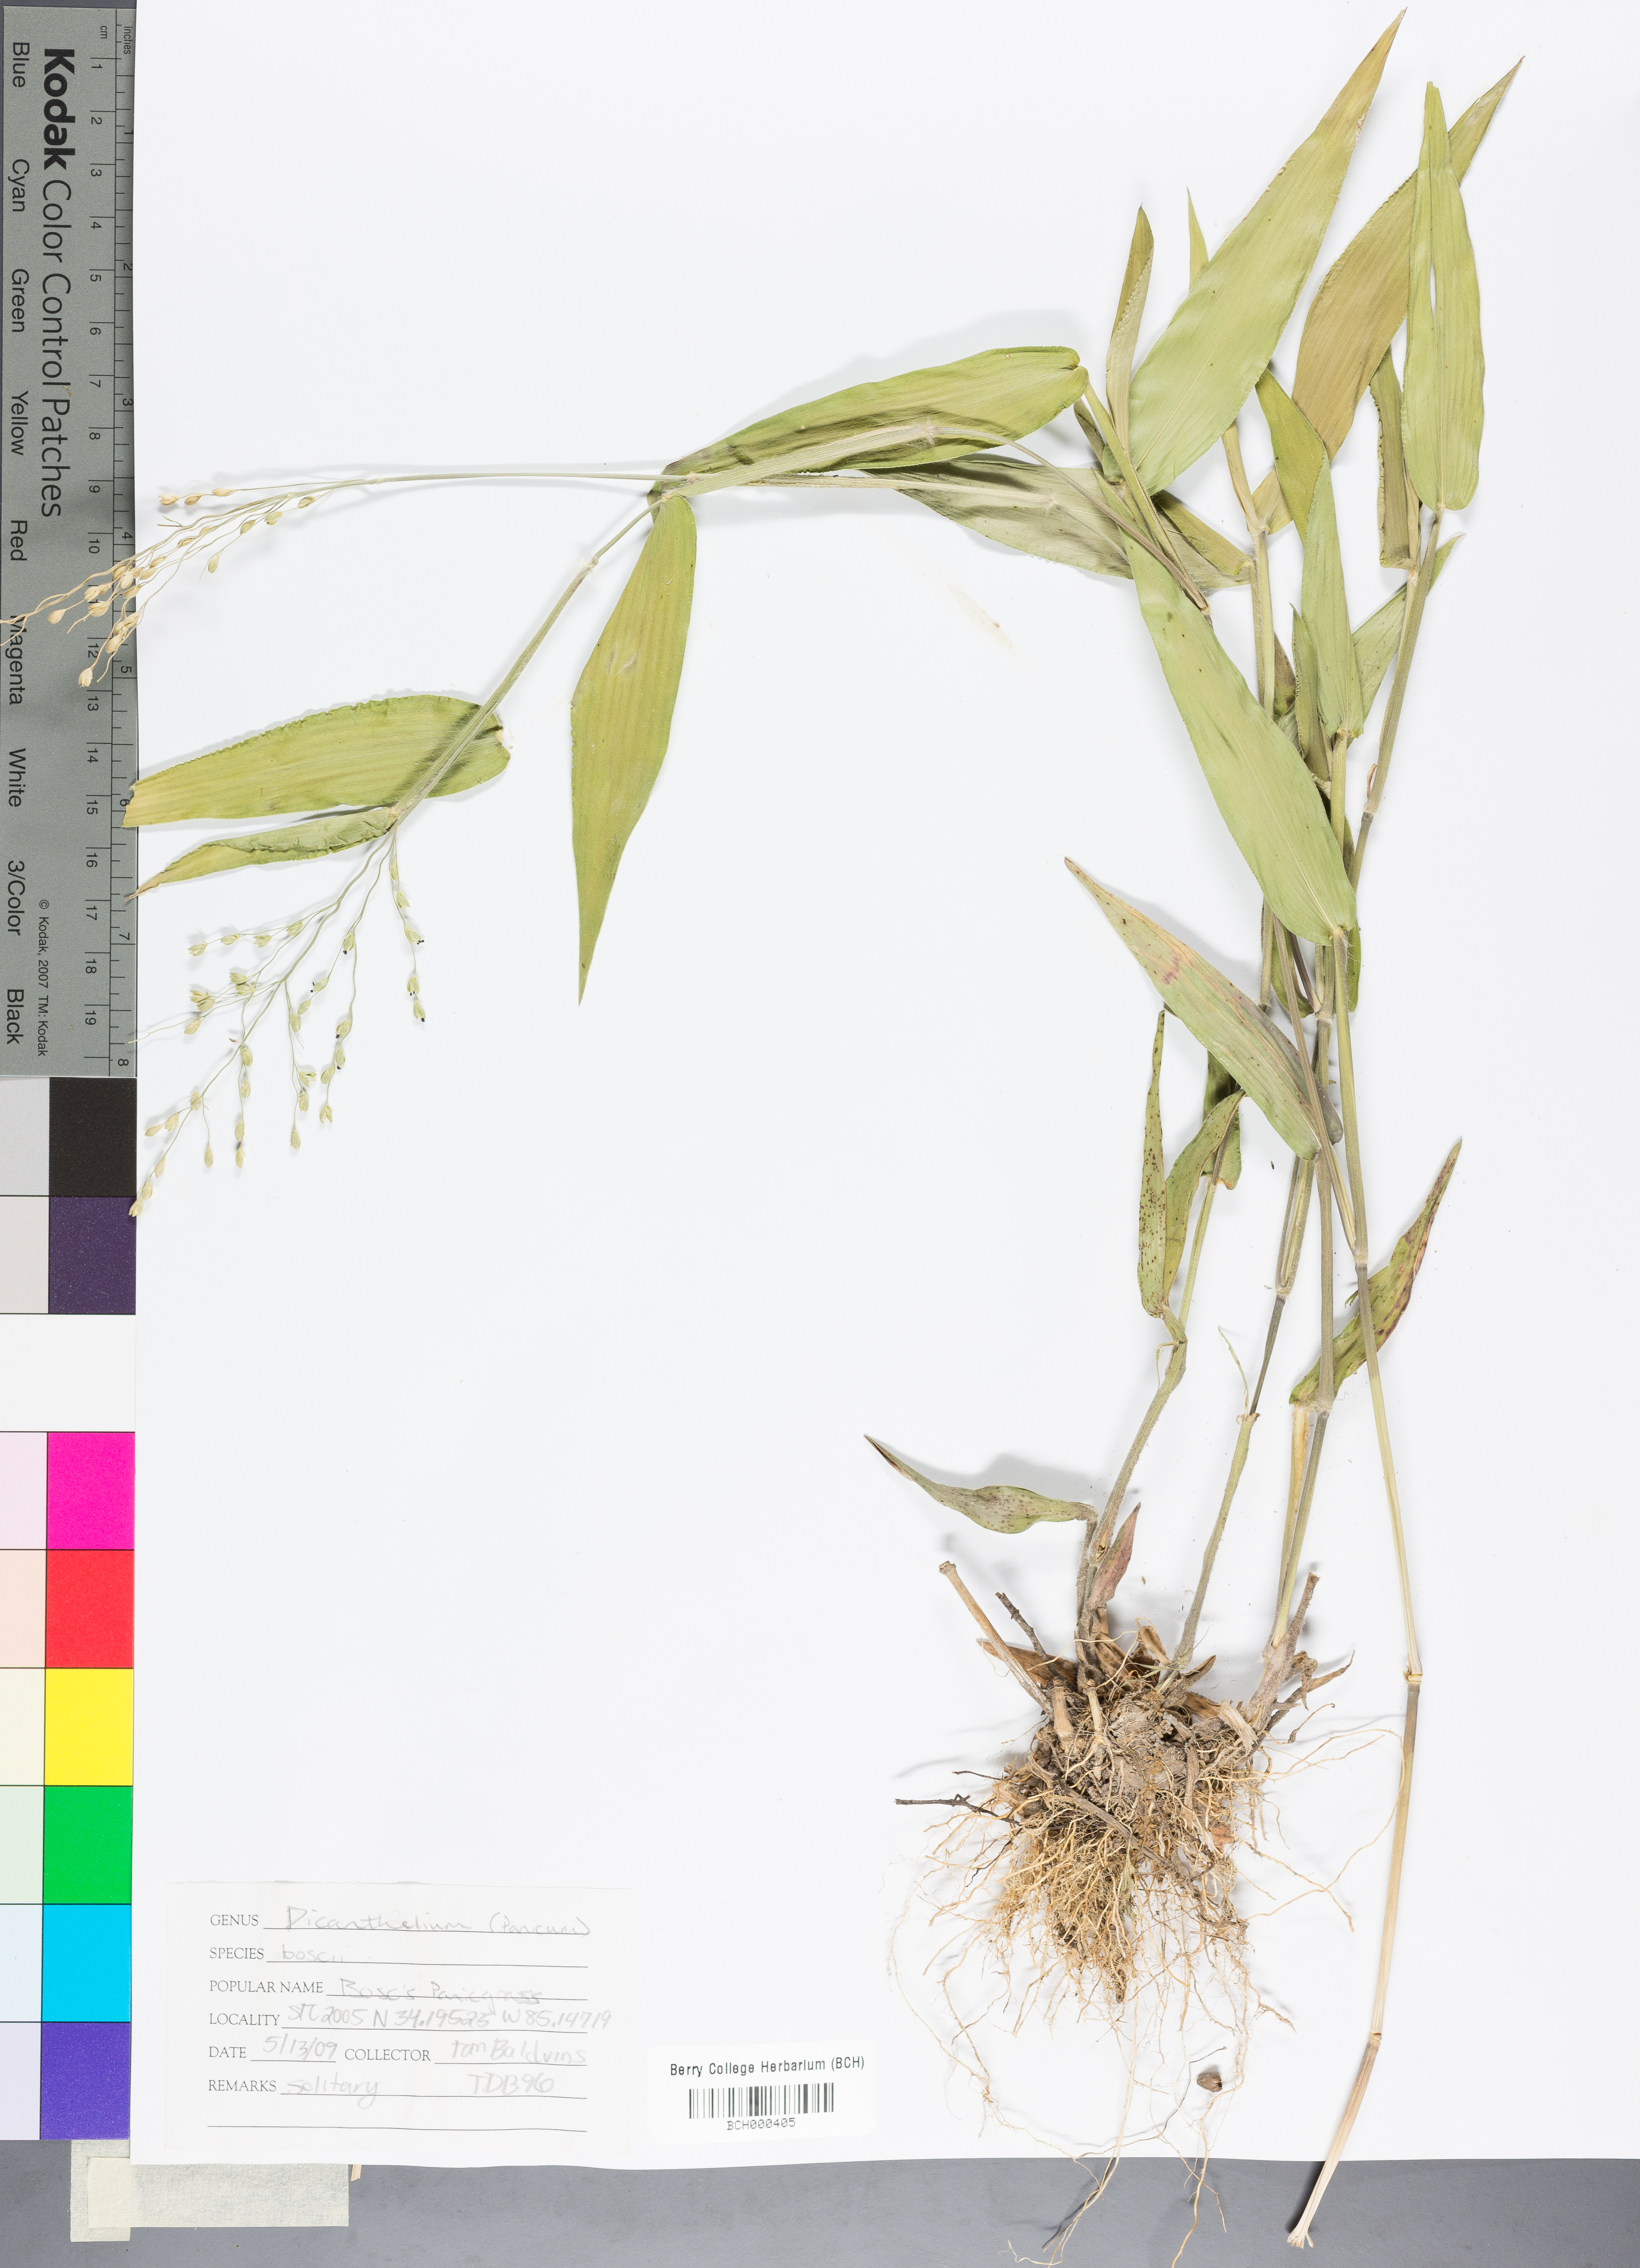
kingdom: Plantae
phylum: Tracheophyta
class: Liliopsida
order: Poales
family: Poaceae
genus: Dichanthelium
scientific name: Dichanthelium boscii
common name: Bosc's panic grass
